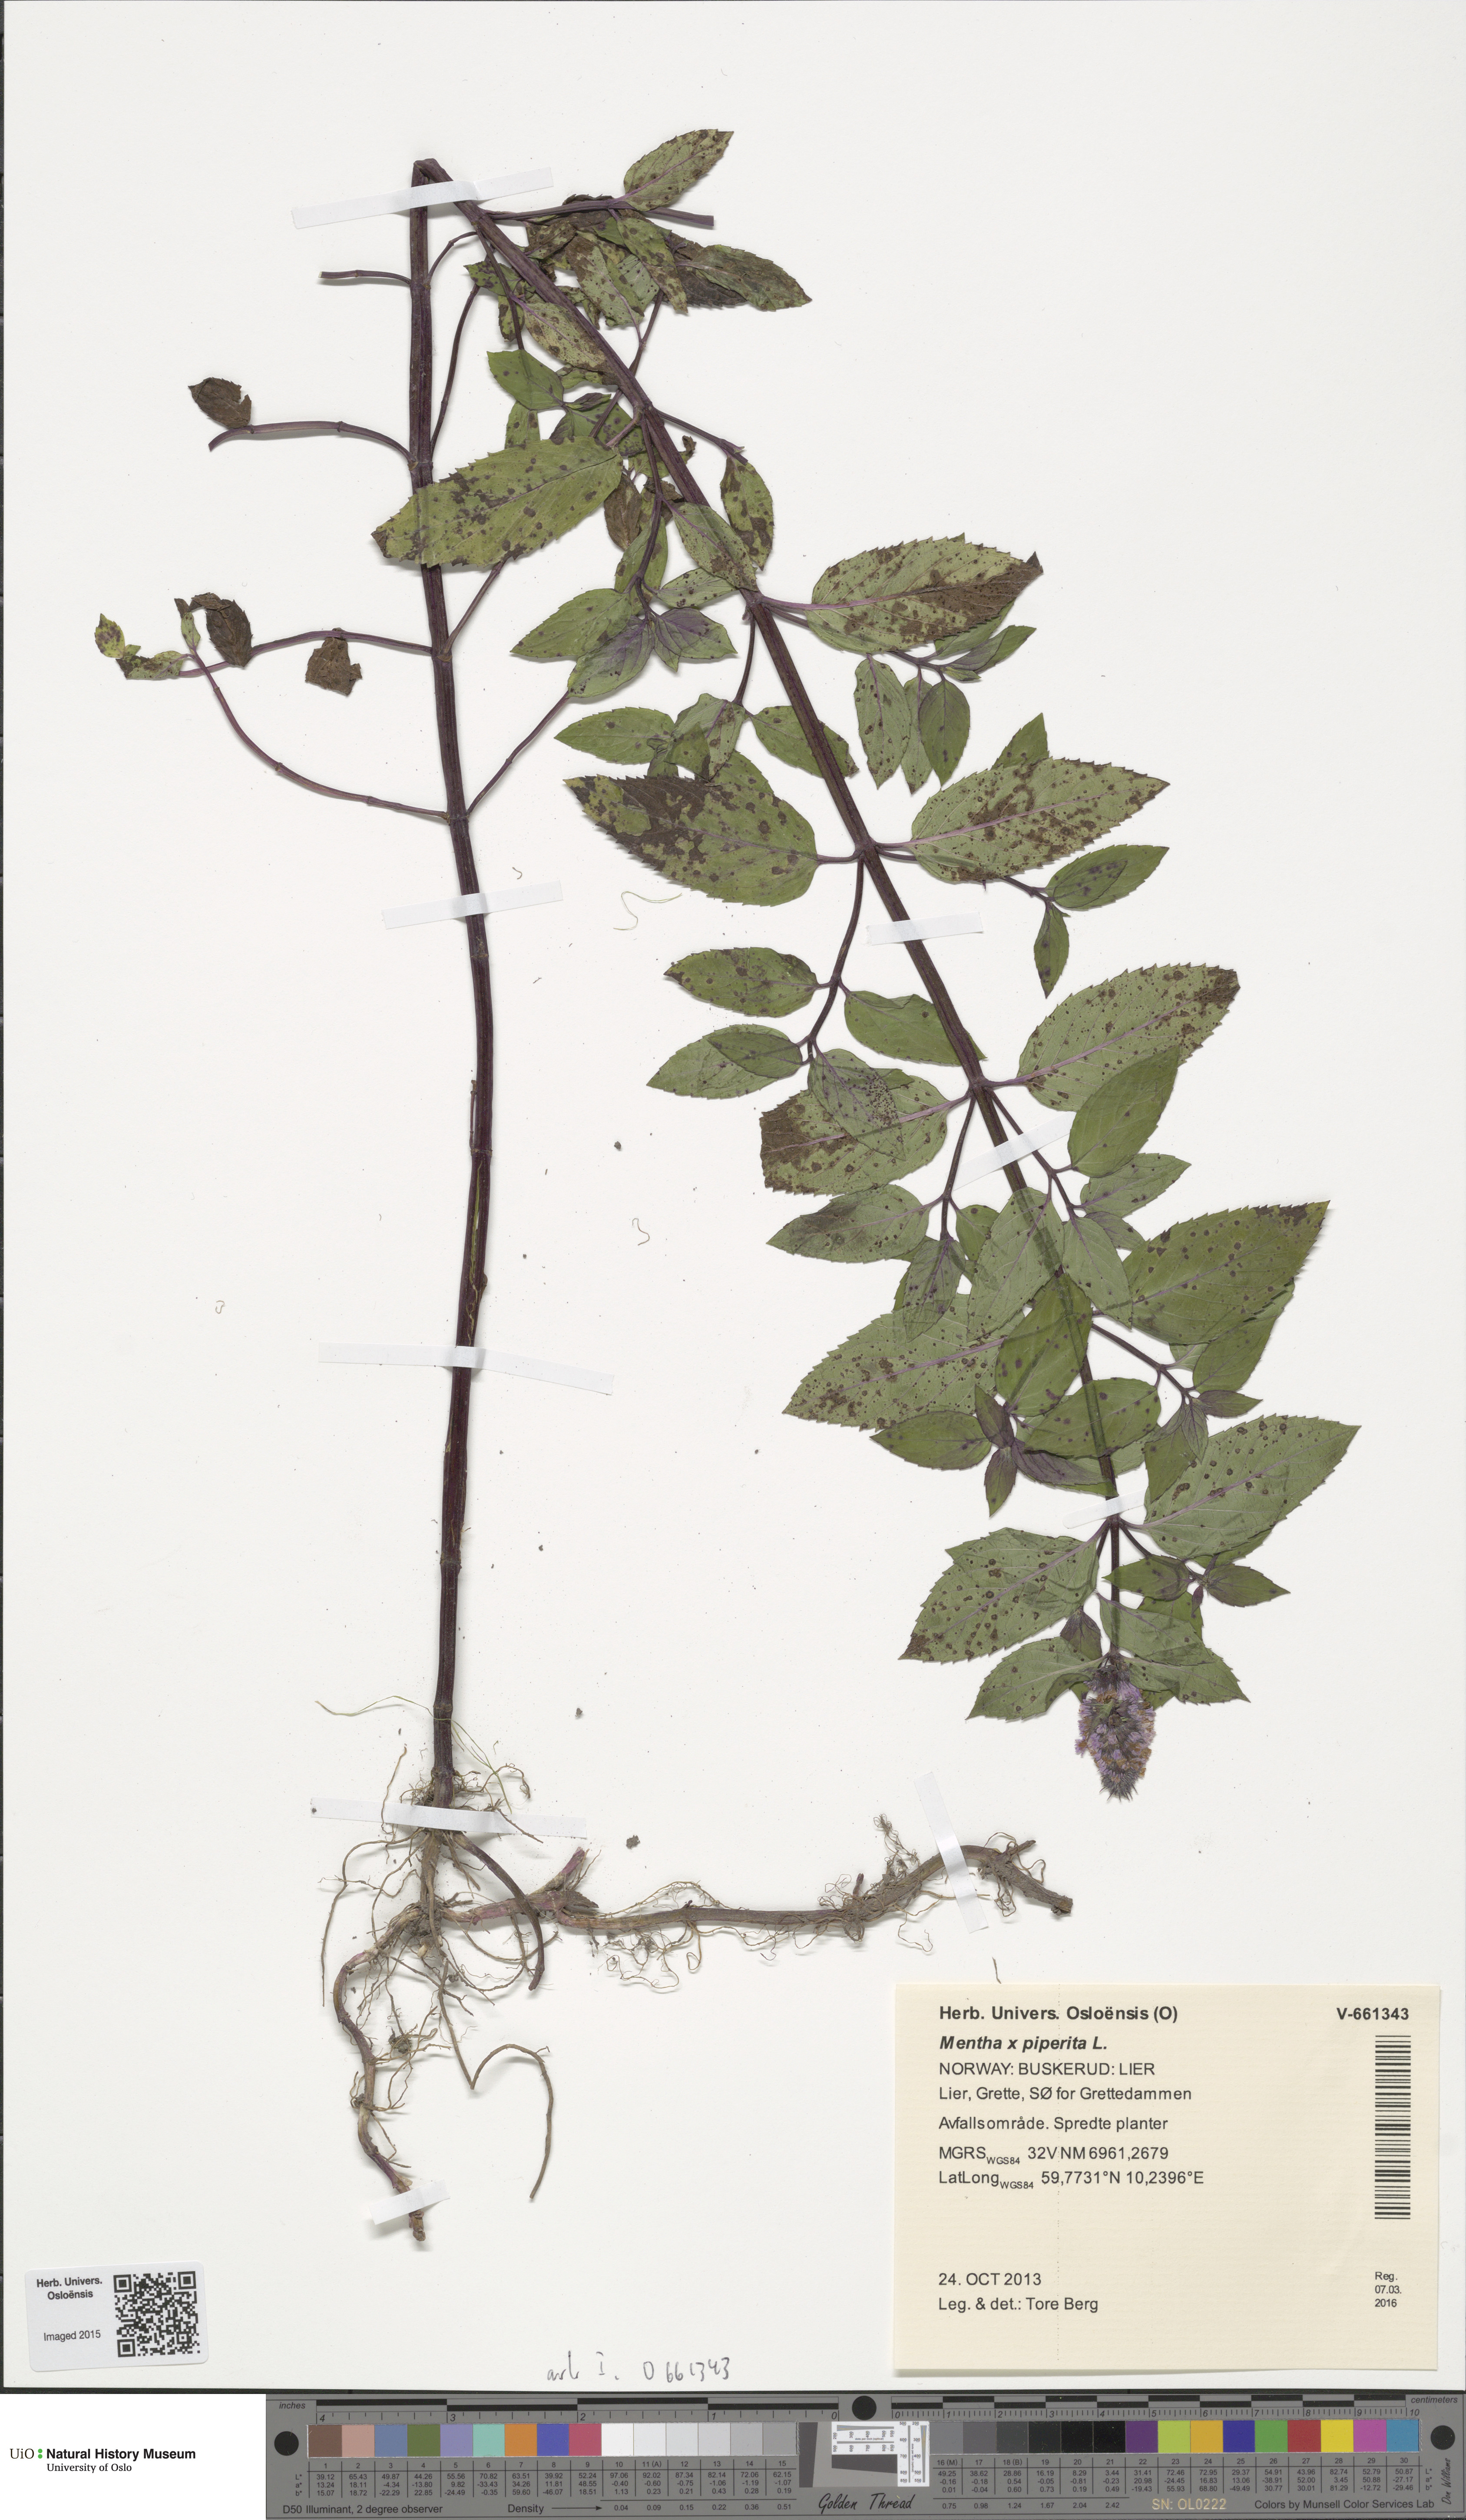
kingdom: Plantae
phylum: Tracheophyta
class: Magnoliopsida
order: Lamiales
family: Lamiaceae
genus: Mentha
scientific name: Mentha piperita
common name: Peppermint
